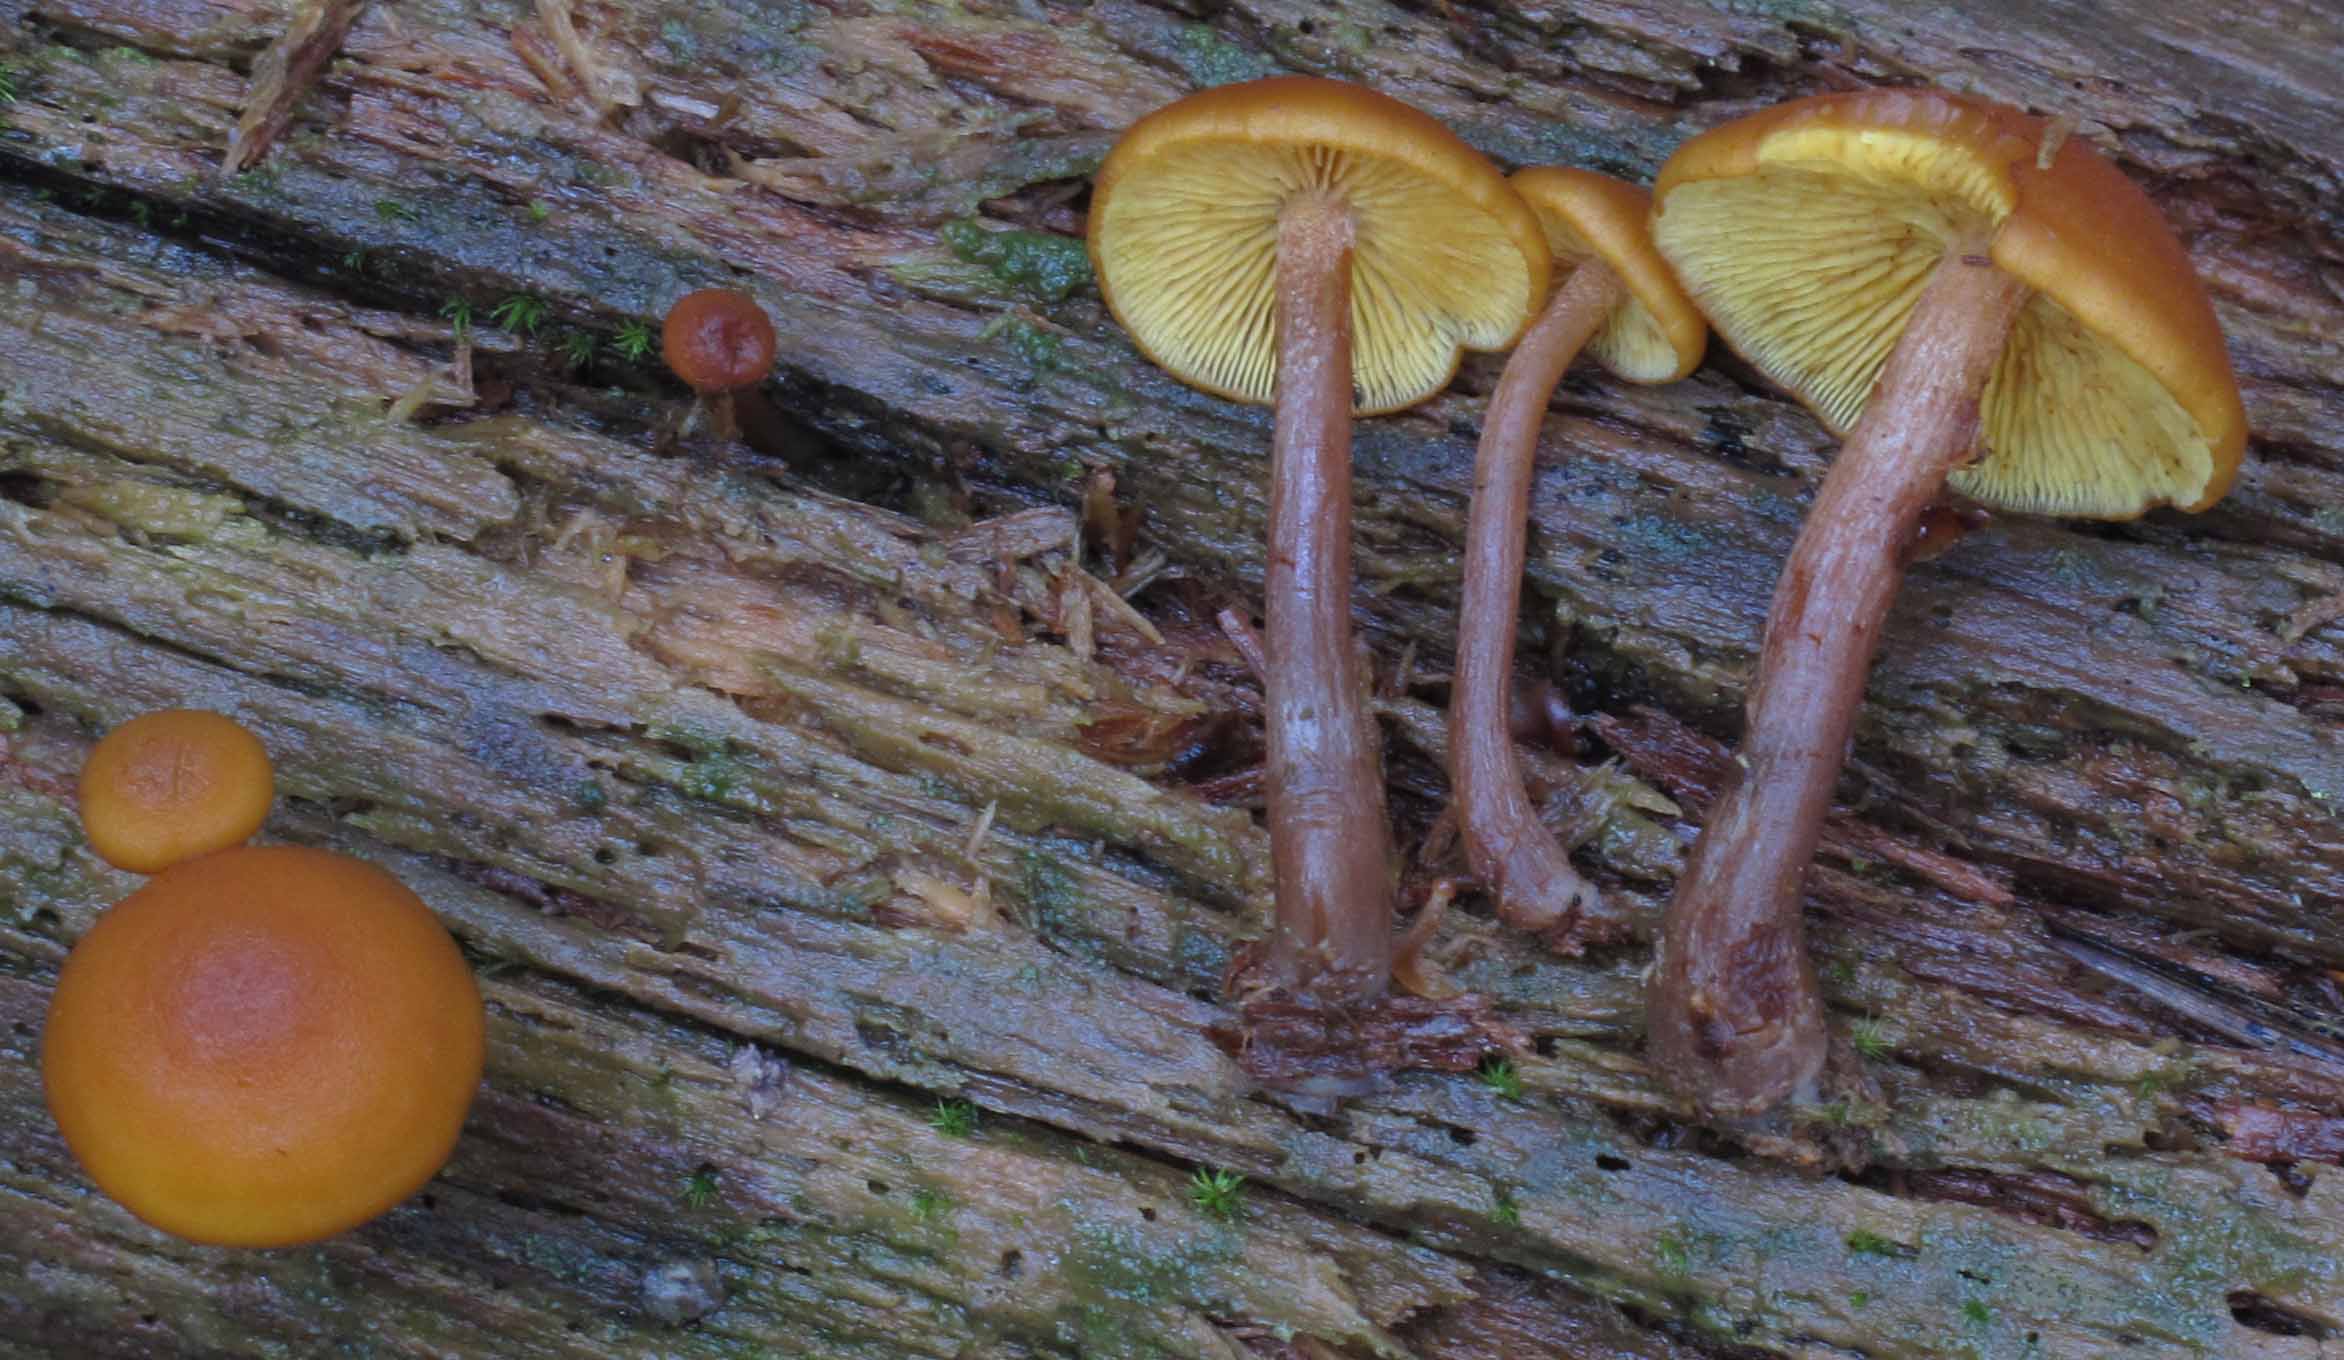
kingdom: Fungi
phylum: Basidiomycota
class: Agaricomycetes
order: Agaricales
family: Hymenogastraceae
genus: Gymnopilus
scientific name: Gymnopilus picreus
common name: puklet flammehat
